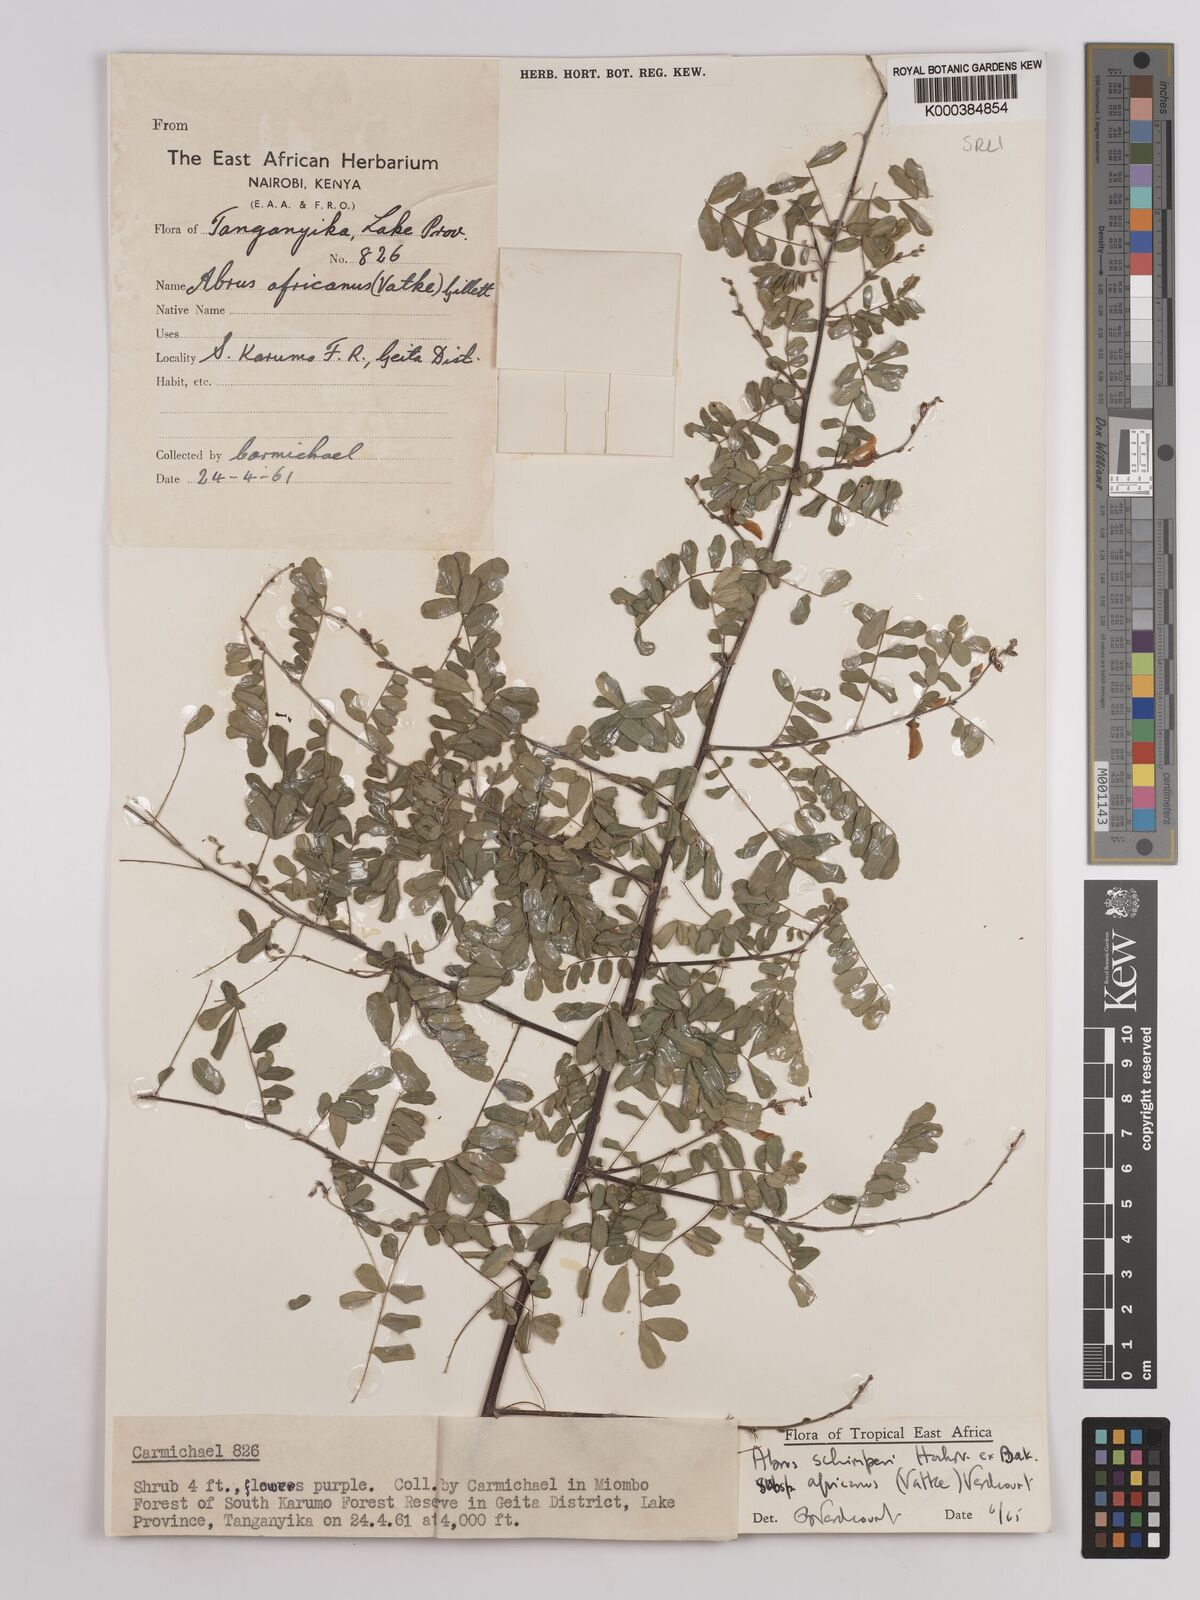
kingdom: Plantae
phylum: Tracheophyta
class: Magnoliopsida
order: Fabales
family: Fabaceae
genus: Abrus
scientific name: Abrus fruticulosus
